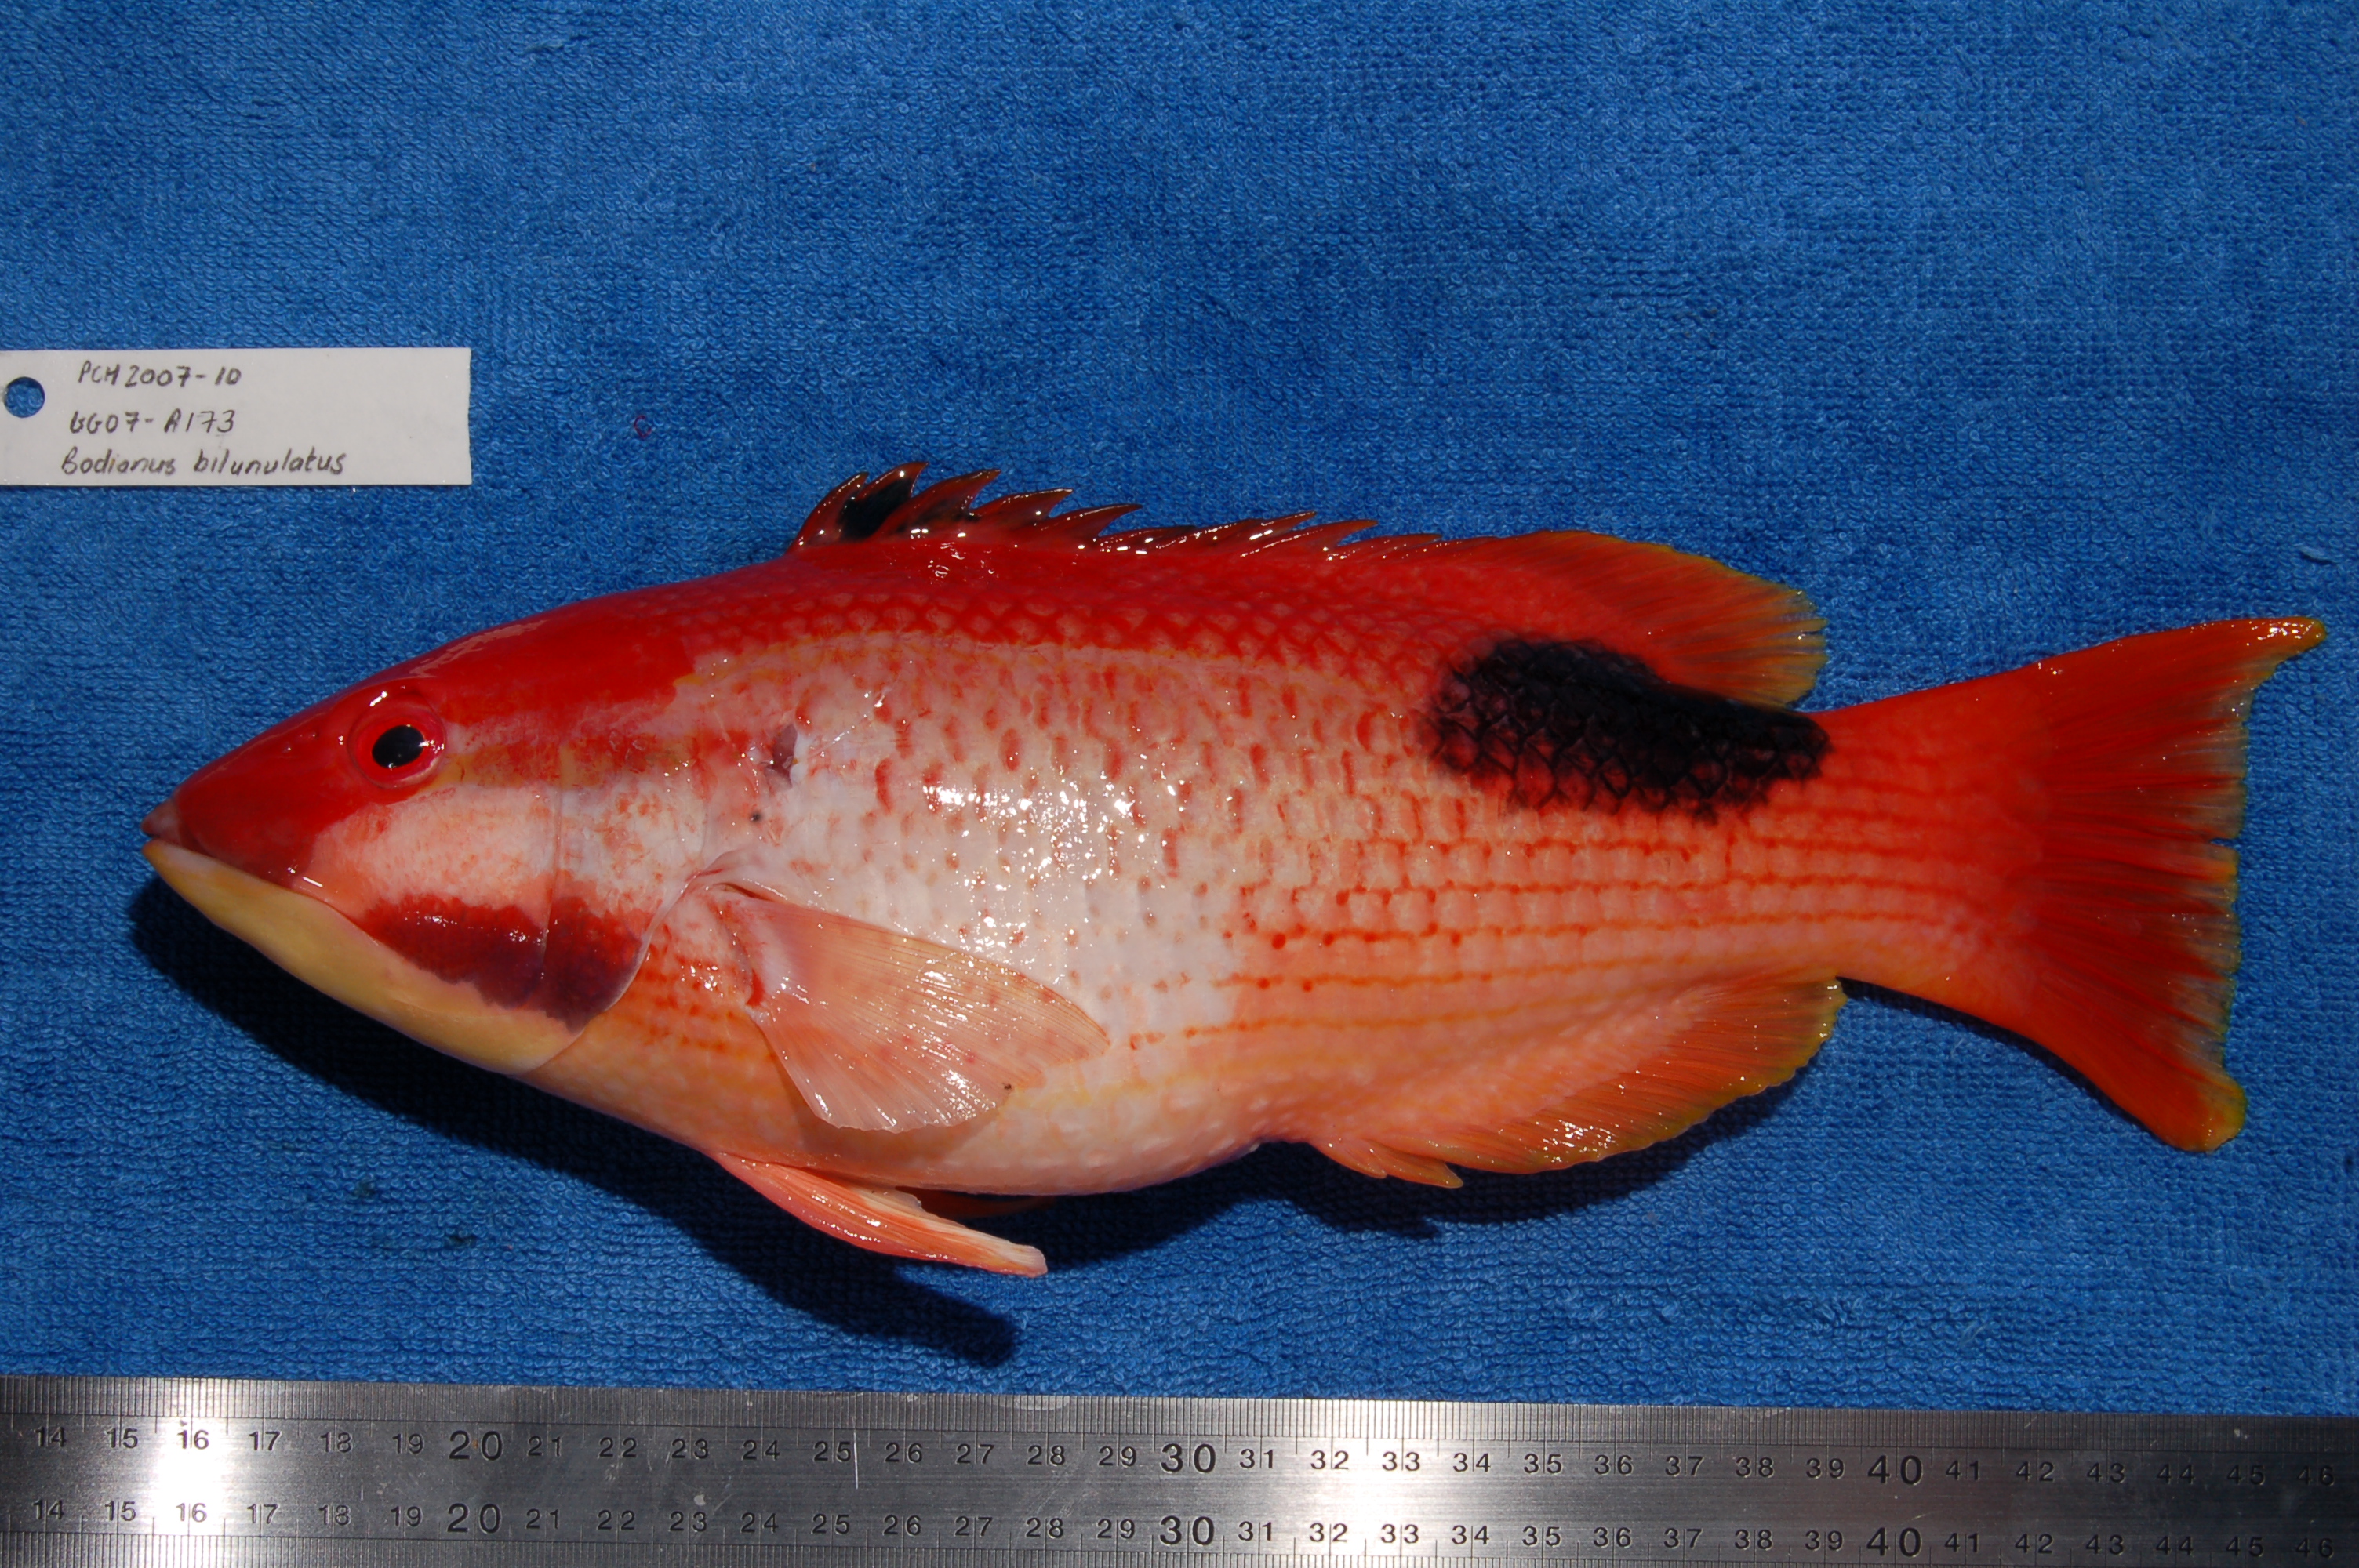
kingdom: Animalia
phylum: Chordata
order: Perciformes
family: Labridae
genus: Bodianus
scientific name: Bodianus bilunulatus
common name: Tarry hogfish
